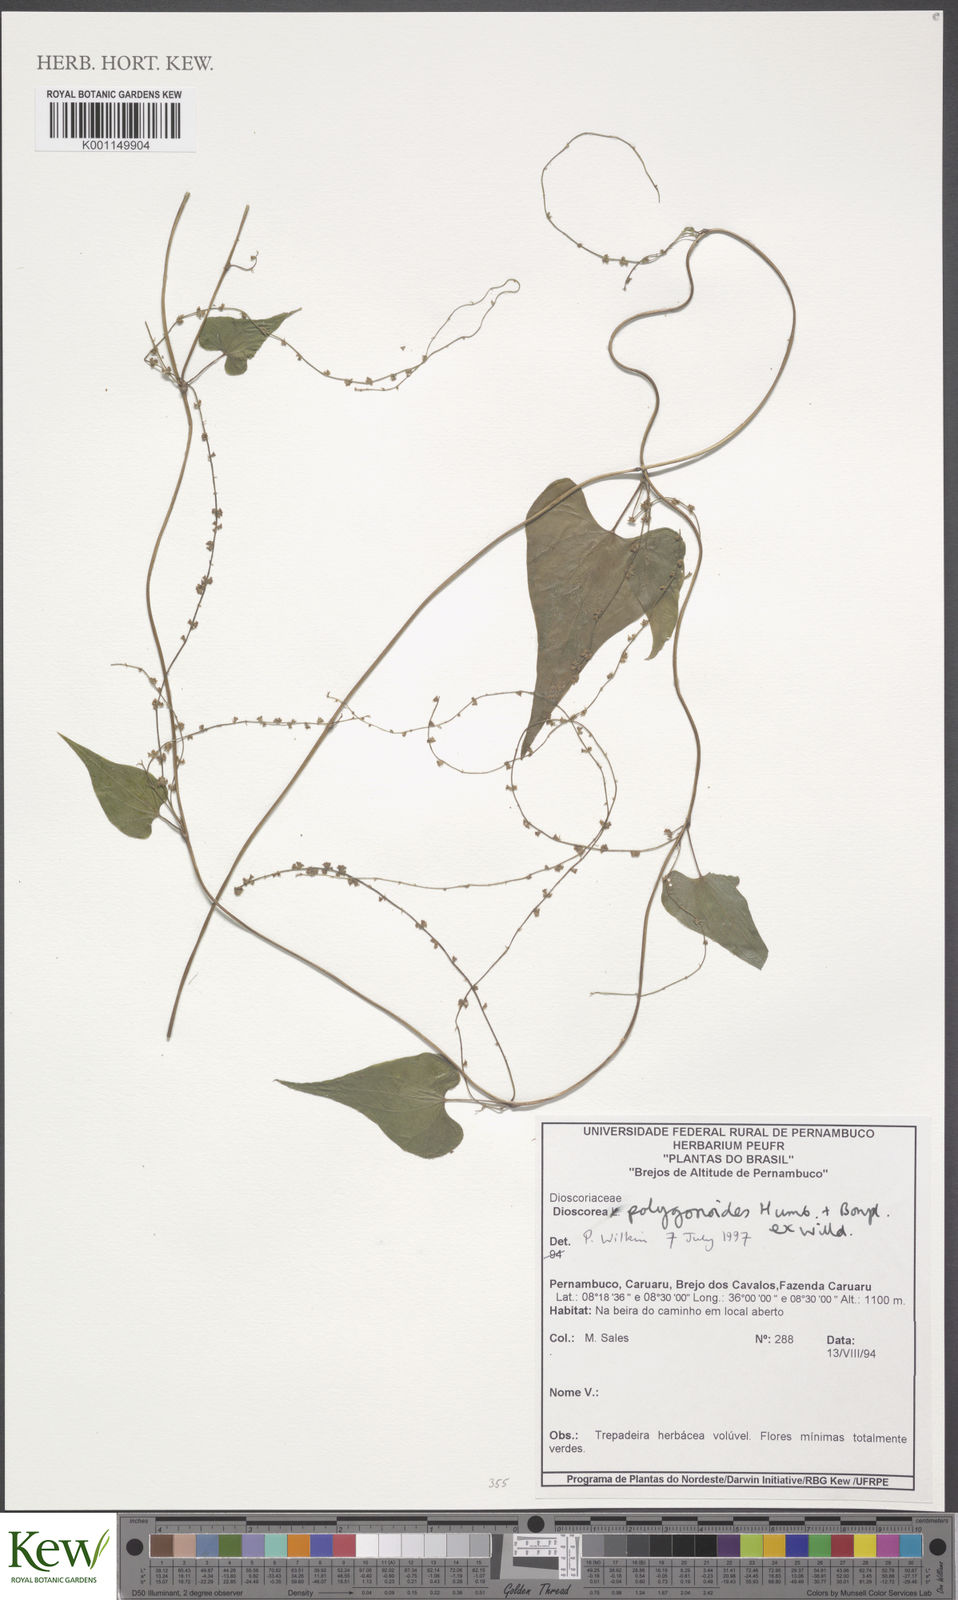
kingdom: Plantae
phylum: Tracheophyta
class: Liliopsida
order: Dioscoreales
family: Dioscoreaceae
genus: Dioscorea
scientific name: Dioscorea polygonoides
